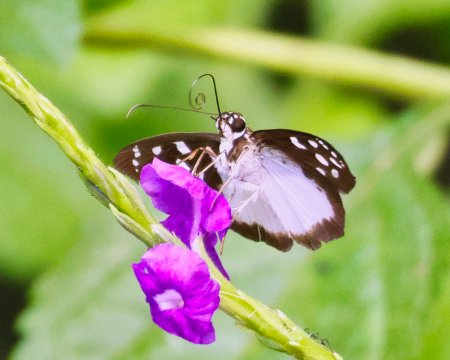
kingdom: Animalia
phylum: Arthropoda
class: Insecta
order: Lepidoptera
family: Hesperiidae
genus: Hyalothyrus
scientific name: Hyalothyrus neleus
